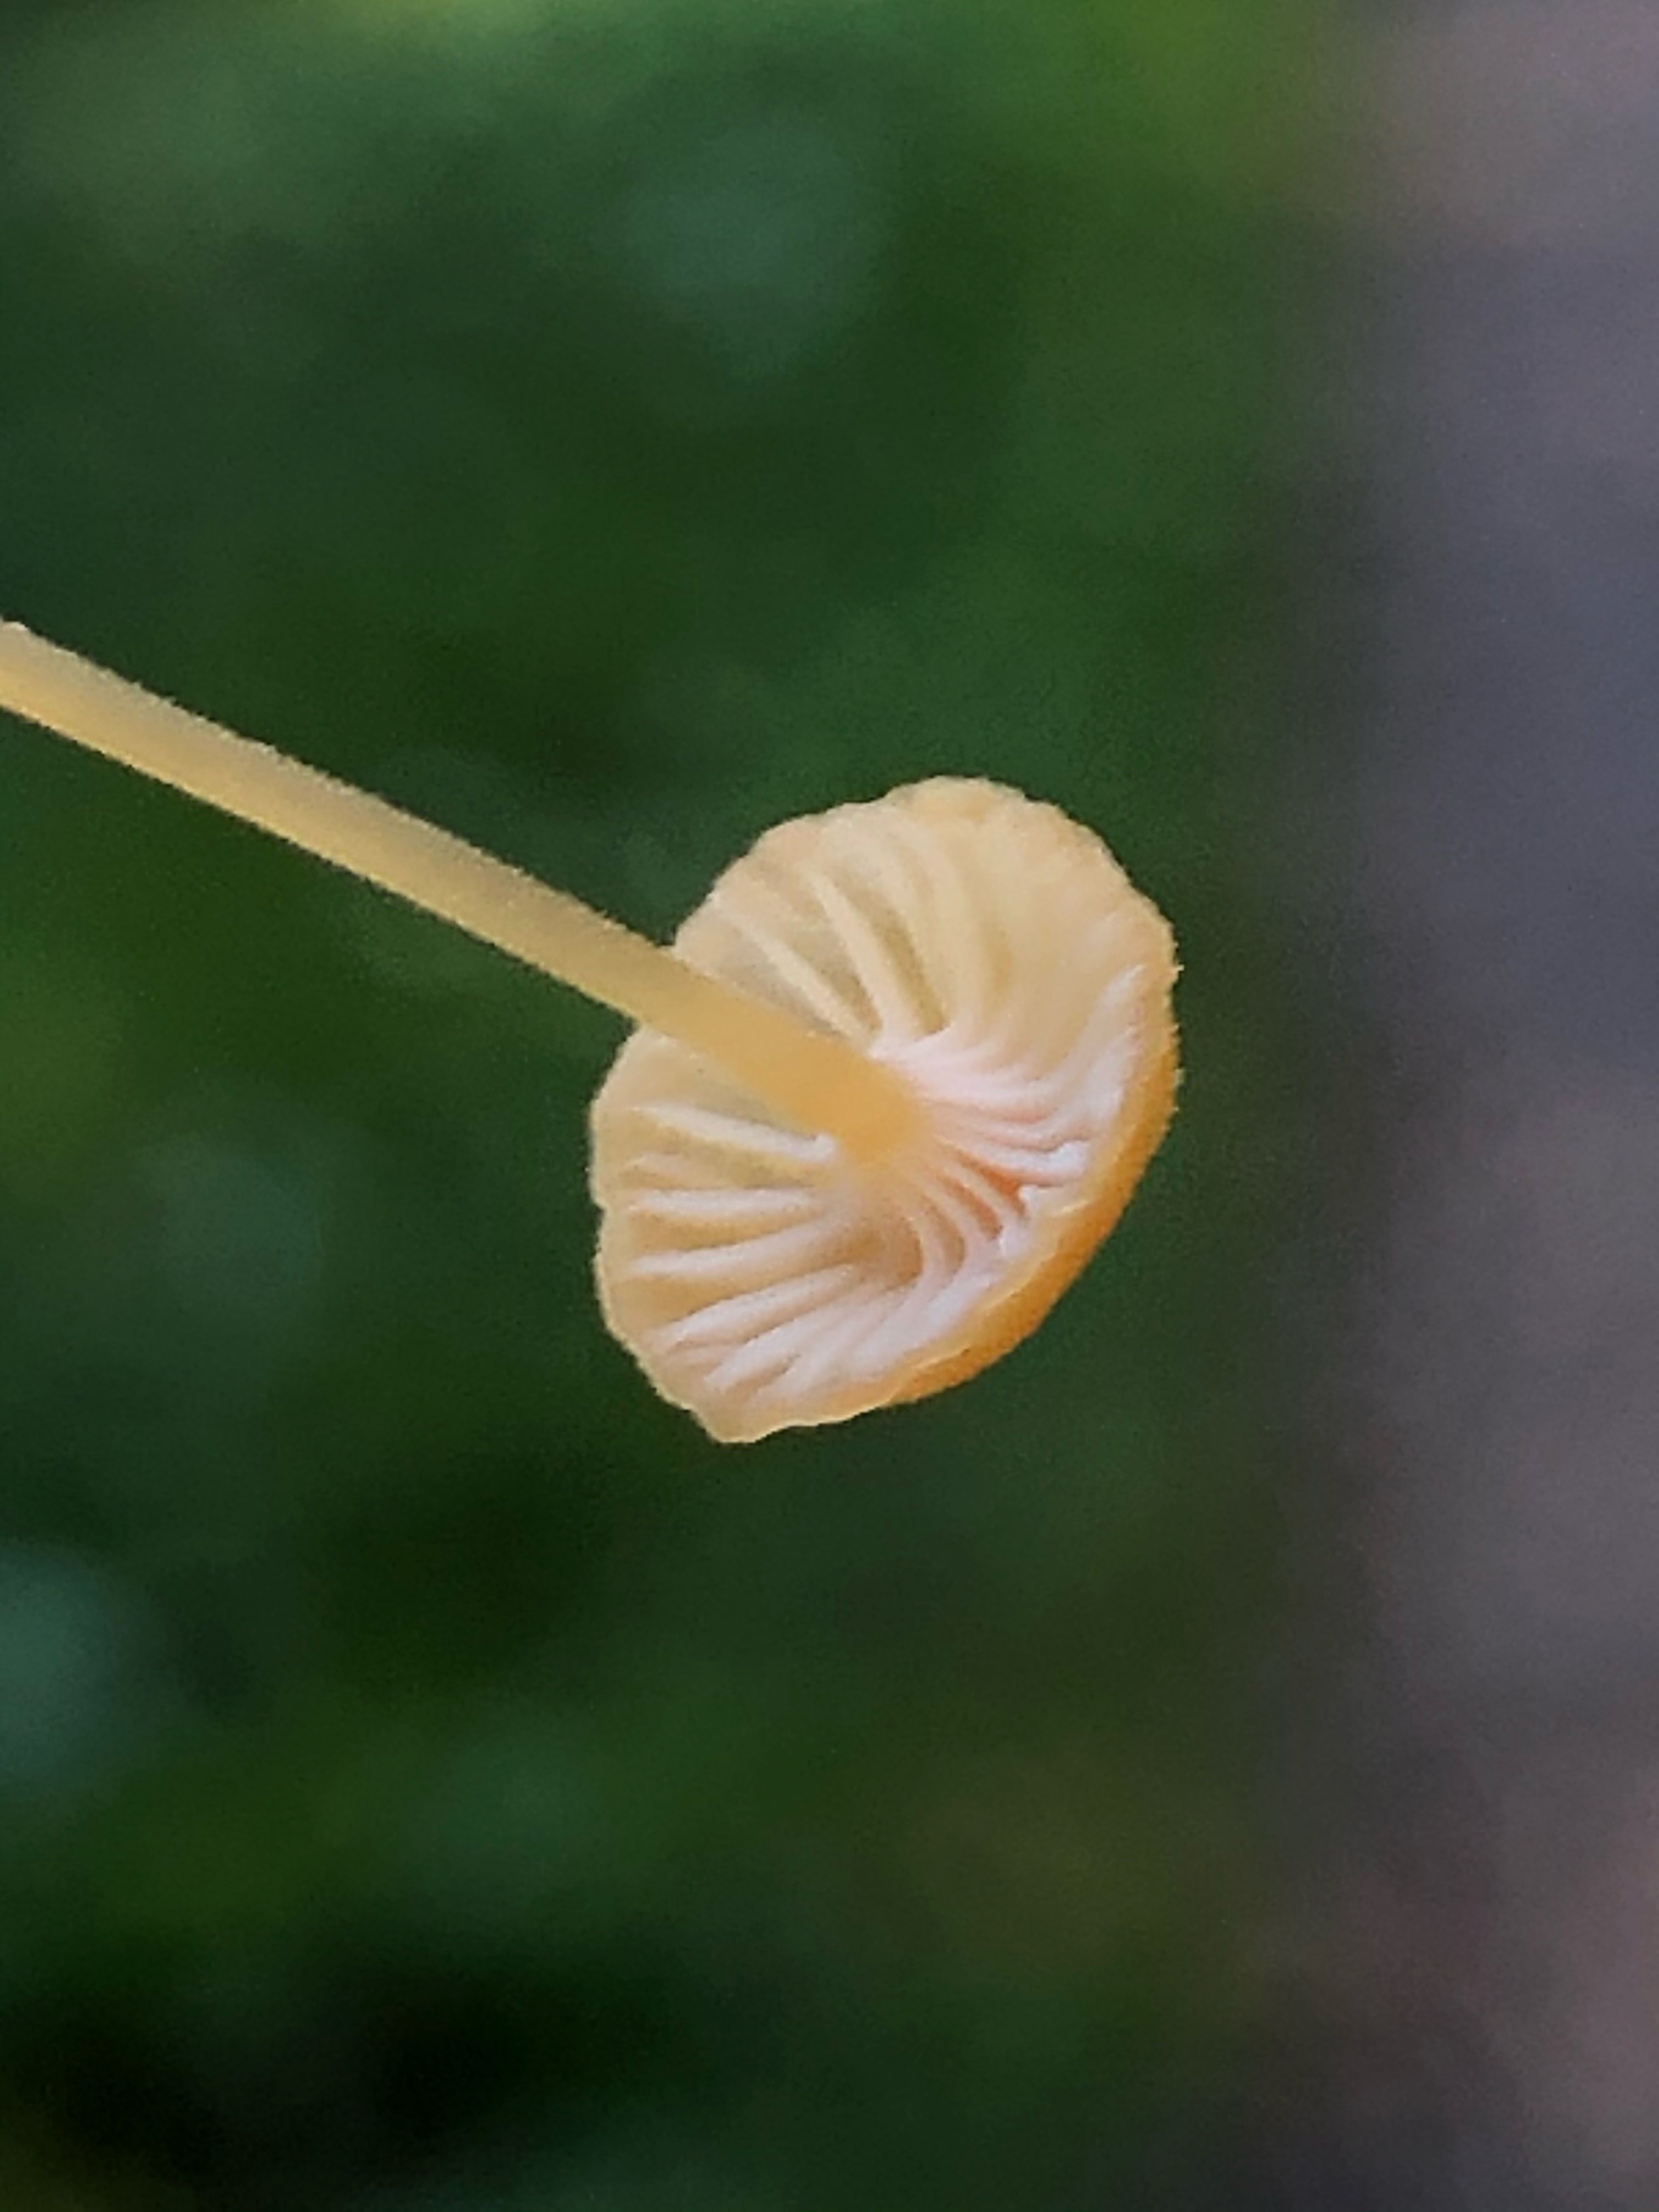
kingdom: Fungi
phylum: Basidiomycota
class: Agaricomycetes
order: Hymenochaetales
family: Rickenellaceae
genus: Rickenella
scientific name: Rickenella fibula
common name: orange mosnavlehat
